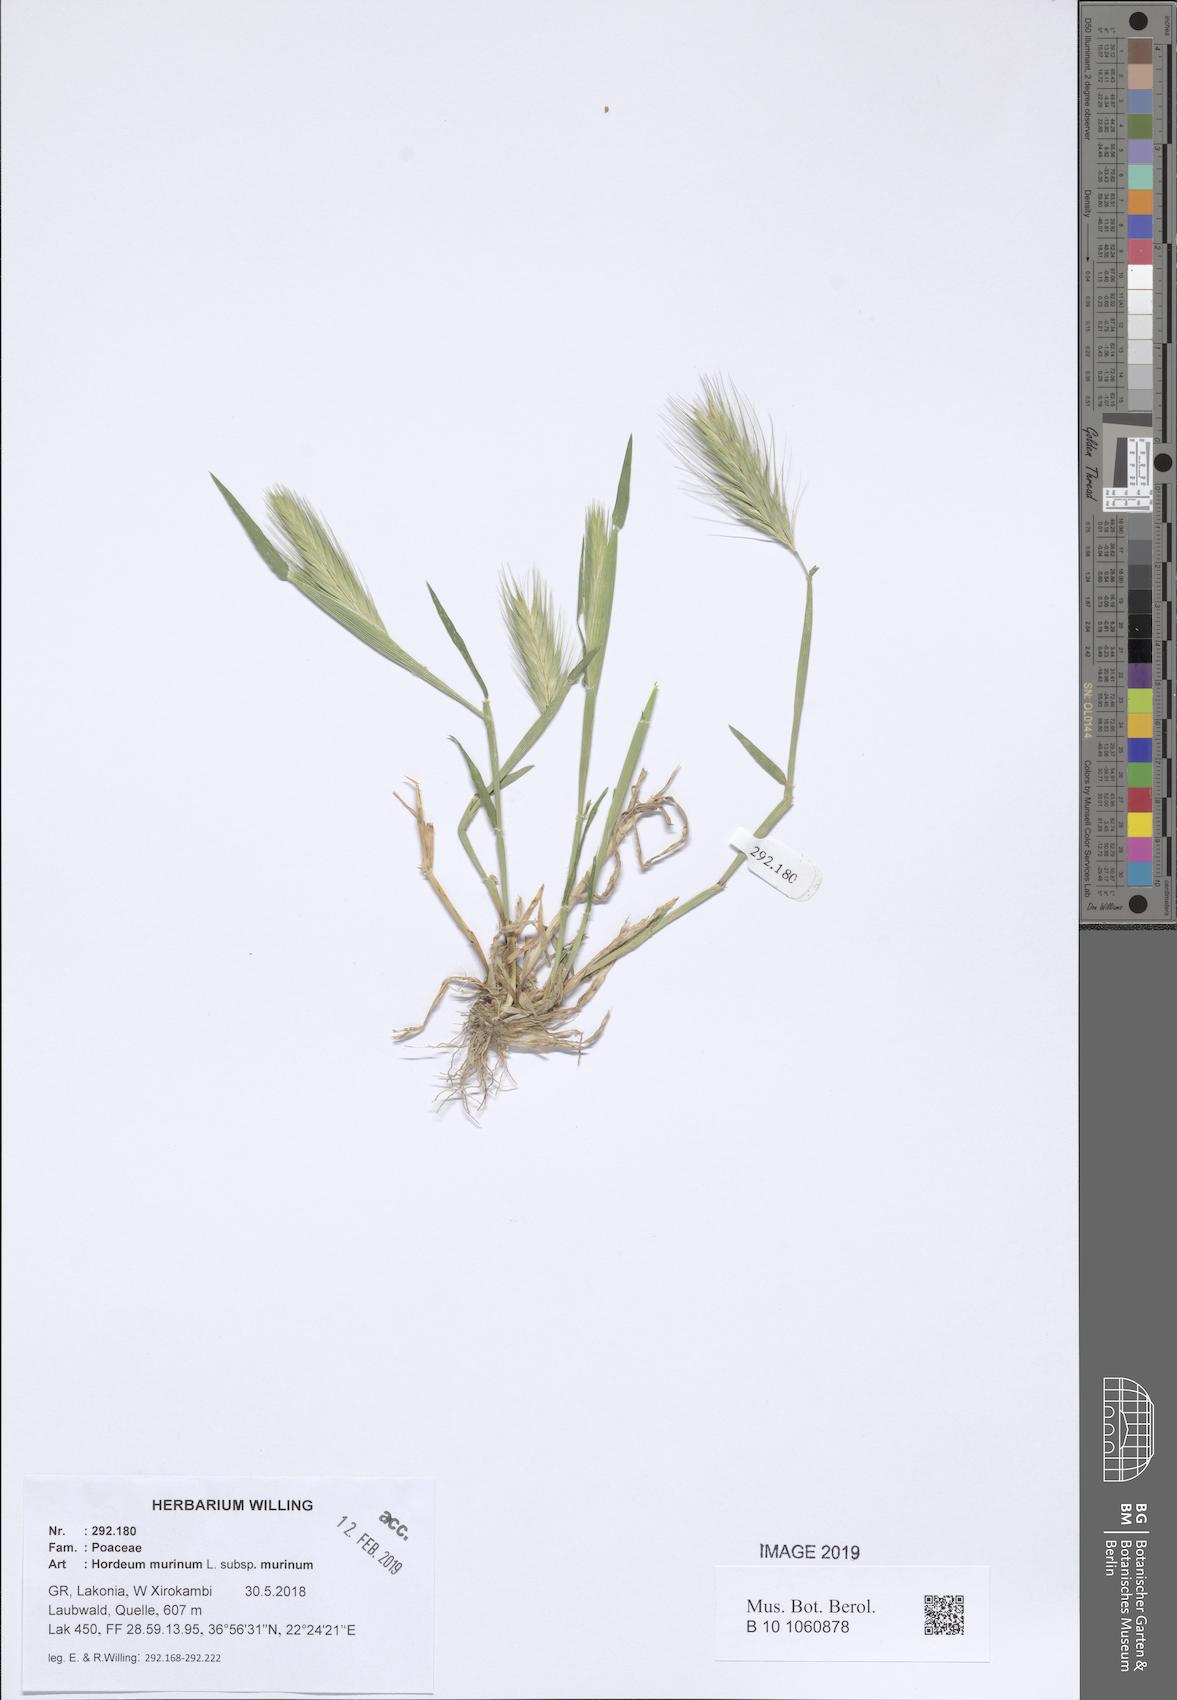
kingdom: Plantae
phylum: Tracheophyta
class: Liliopsida
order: Poales
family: Poaceae
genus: Hordeum
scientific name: Hordeum murinum
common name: Wall barley
